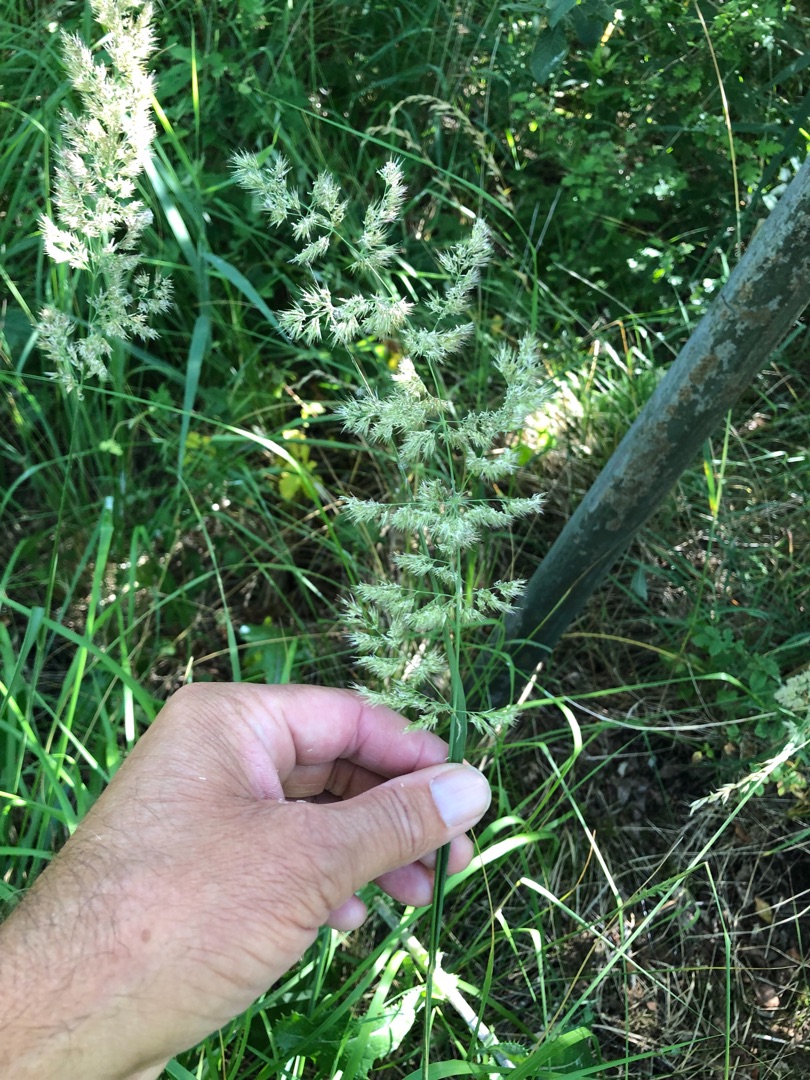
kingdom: Plantae
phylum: Tracheophyta
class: Liliopsida
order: Poales
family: Poaceae
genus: Calamagrostis
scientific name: Calamagrostis canescens
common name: Eng-rørhvene
